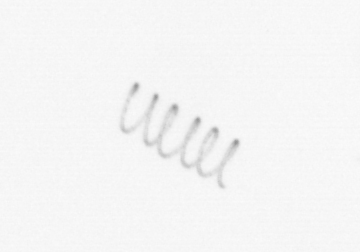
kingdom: Chromista
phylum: Ochrophyta
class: Bacillariophyceae
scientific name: Bacillariophyceae
